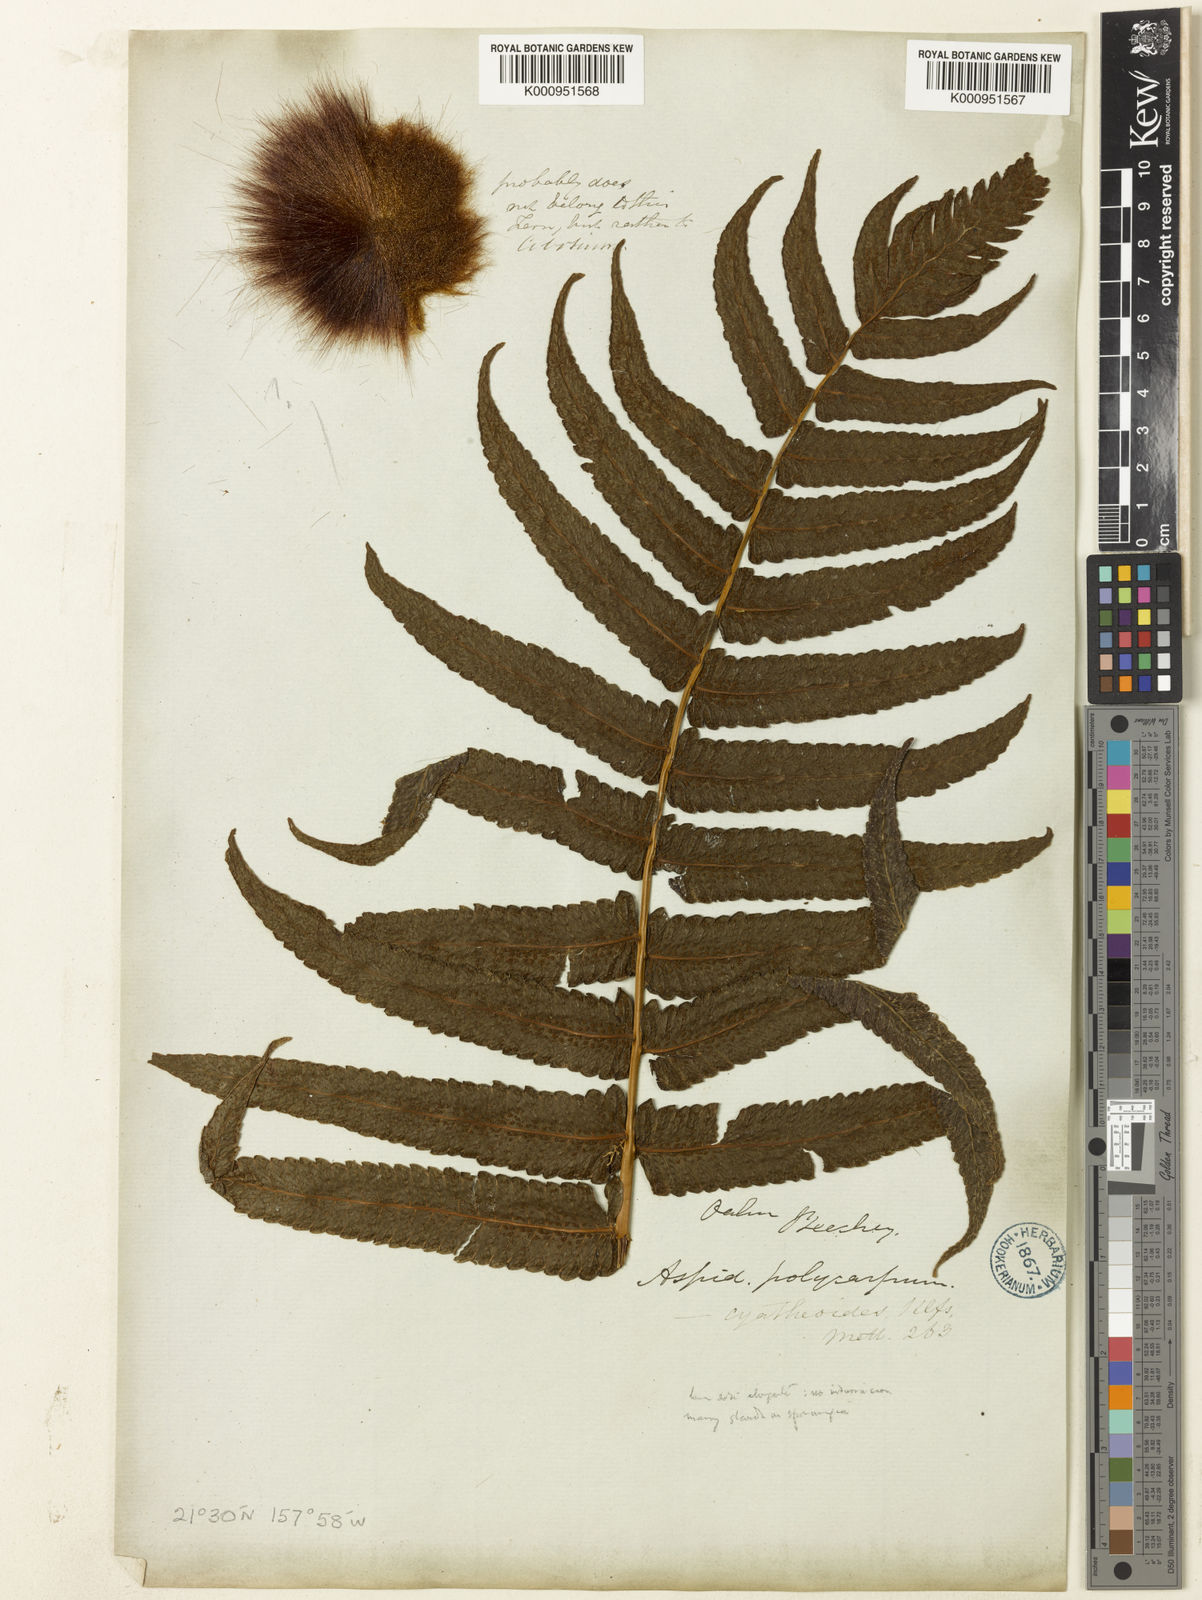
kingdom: Plantae
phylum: Tracheophyta
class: Polypodiopsida
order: Polypodiales
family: Thelypteridaceae
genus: Hoiokula
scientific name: Hoiokula sandwicensis
